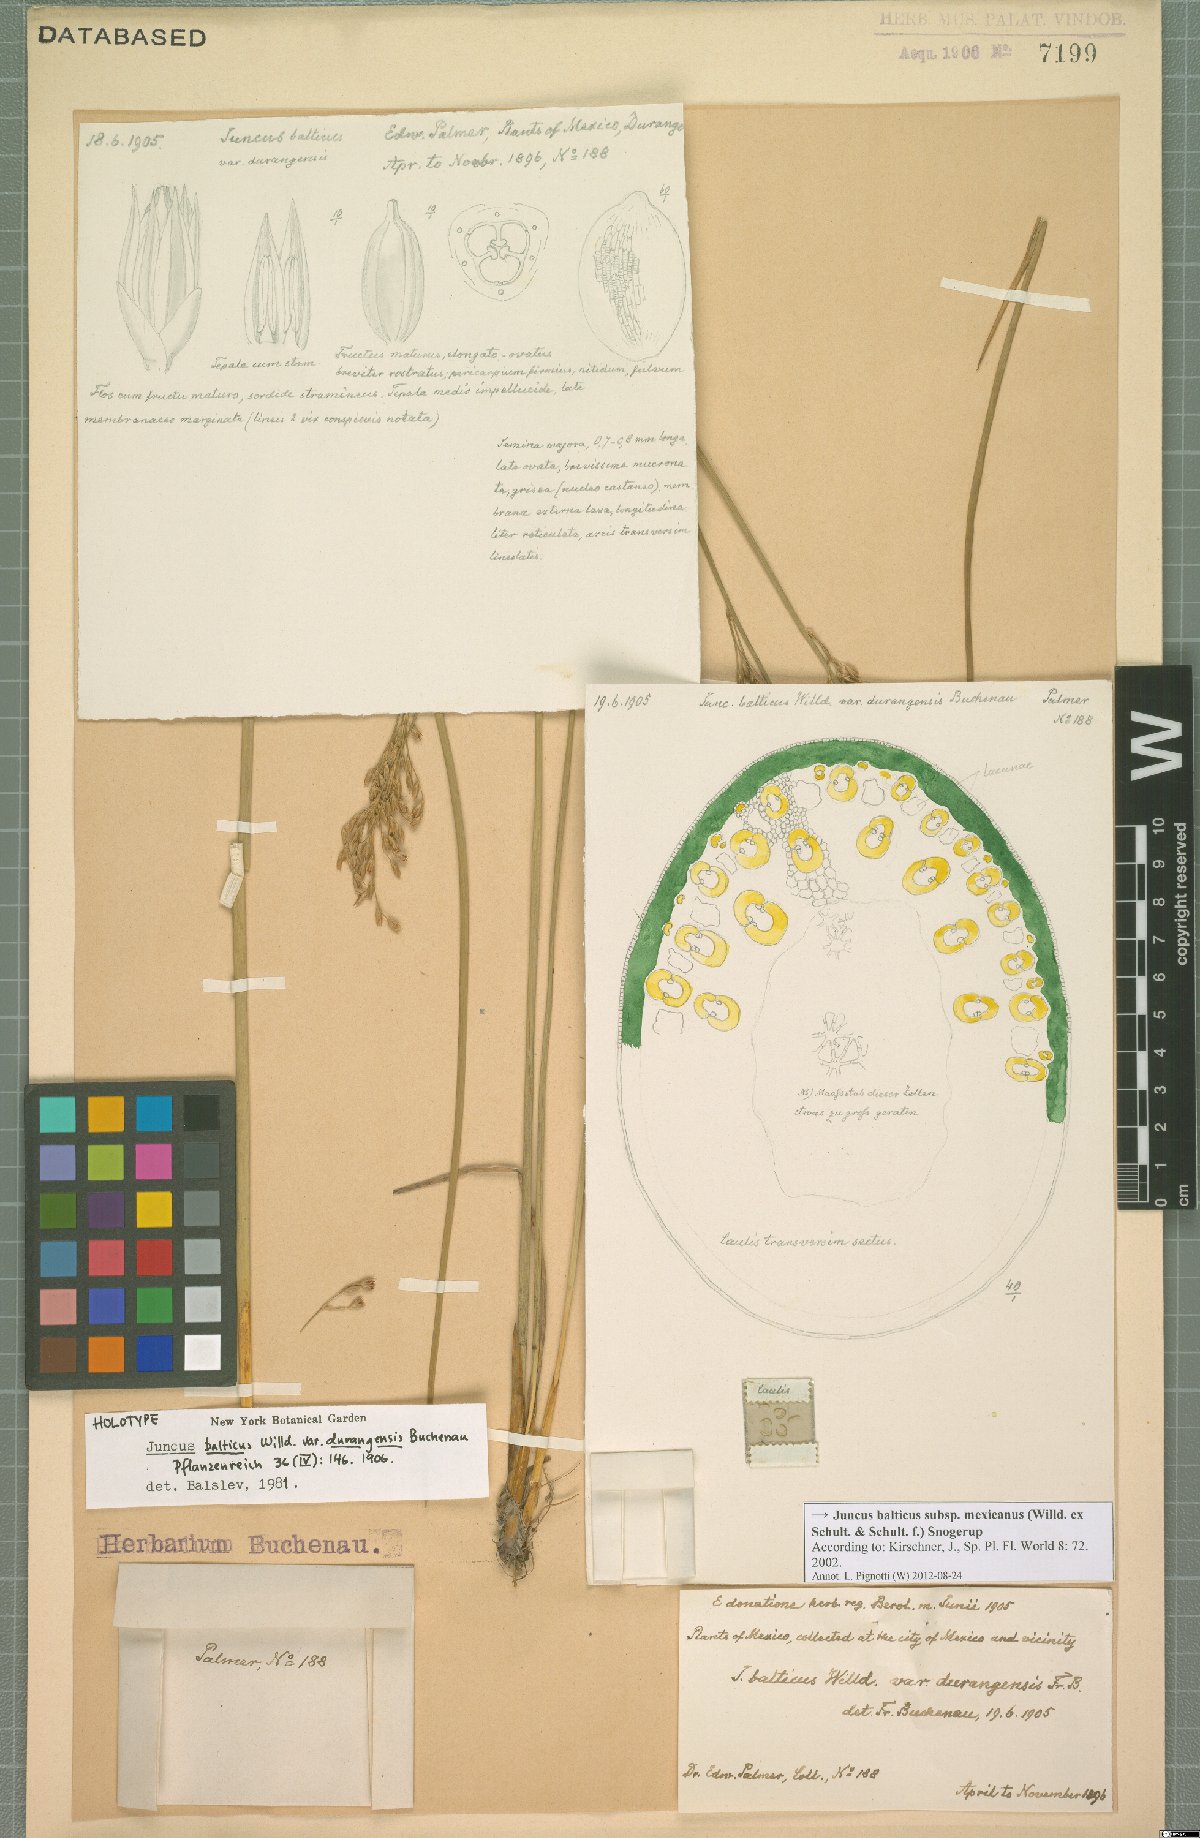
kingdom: Plantae
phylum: Tracheophyta
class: Liliopsida
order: Poales
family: Juncaceae
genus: Juncus
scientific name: Juncus balticus
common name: Baltic rush
